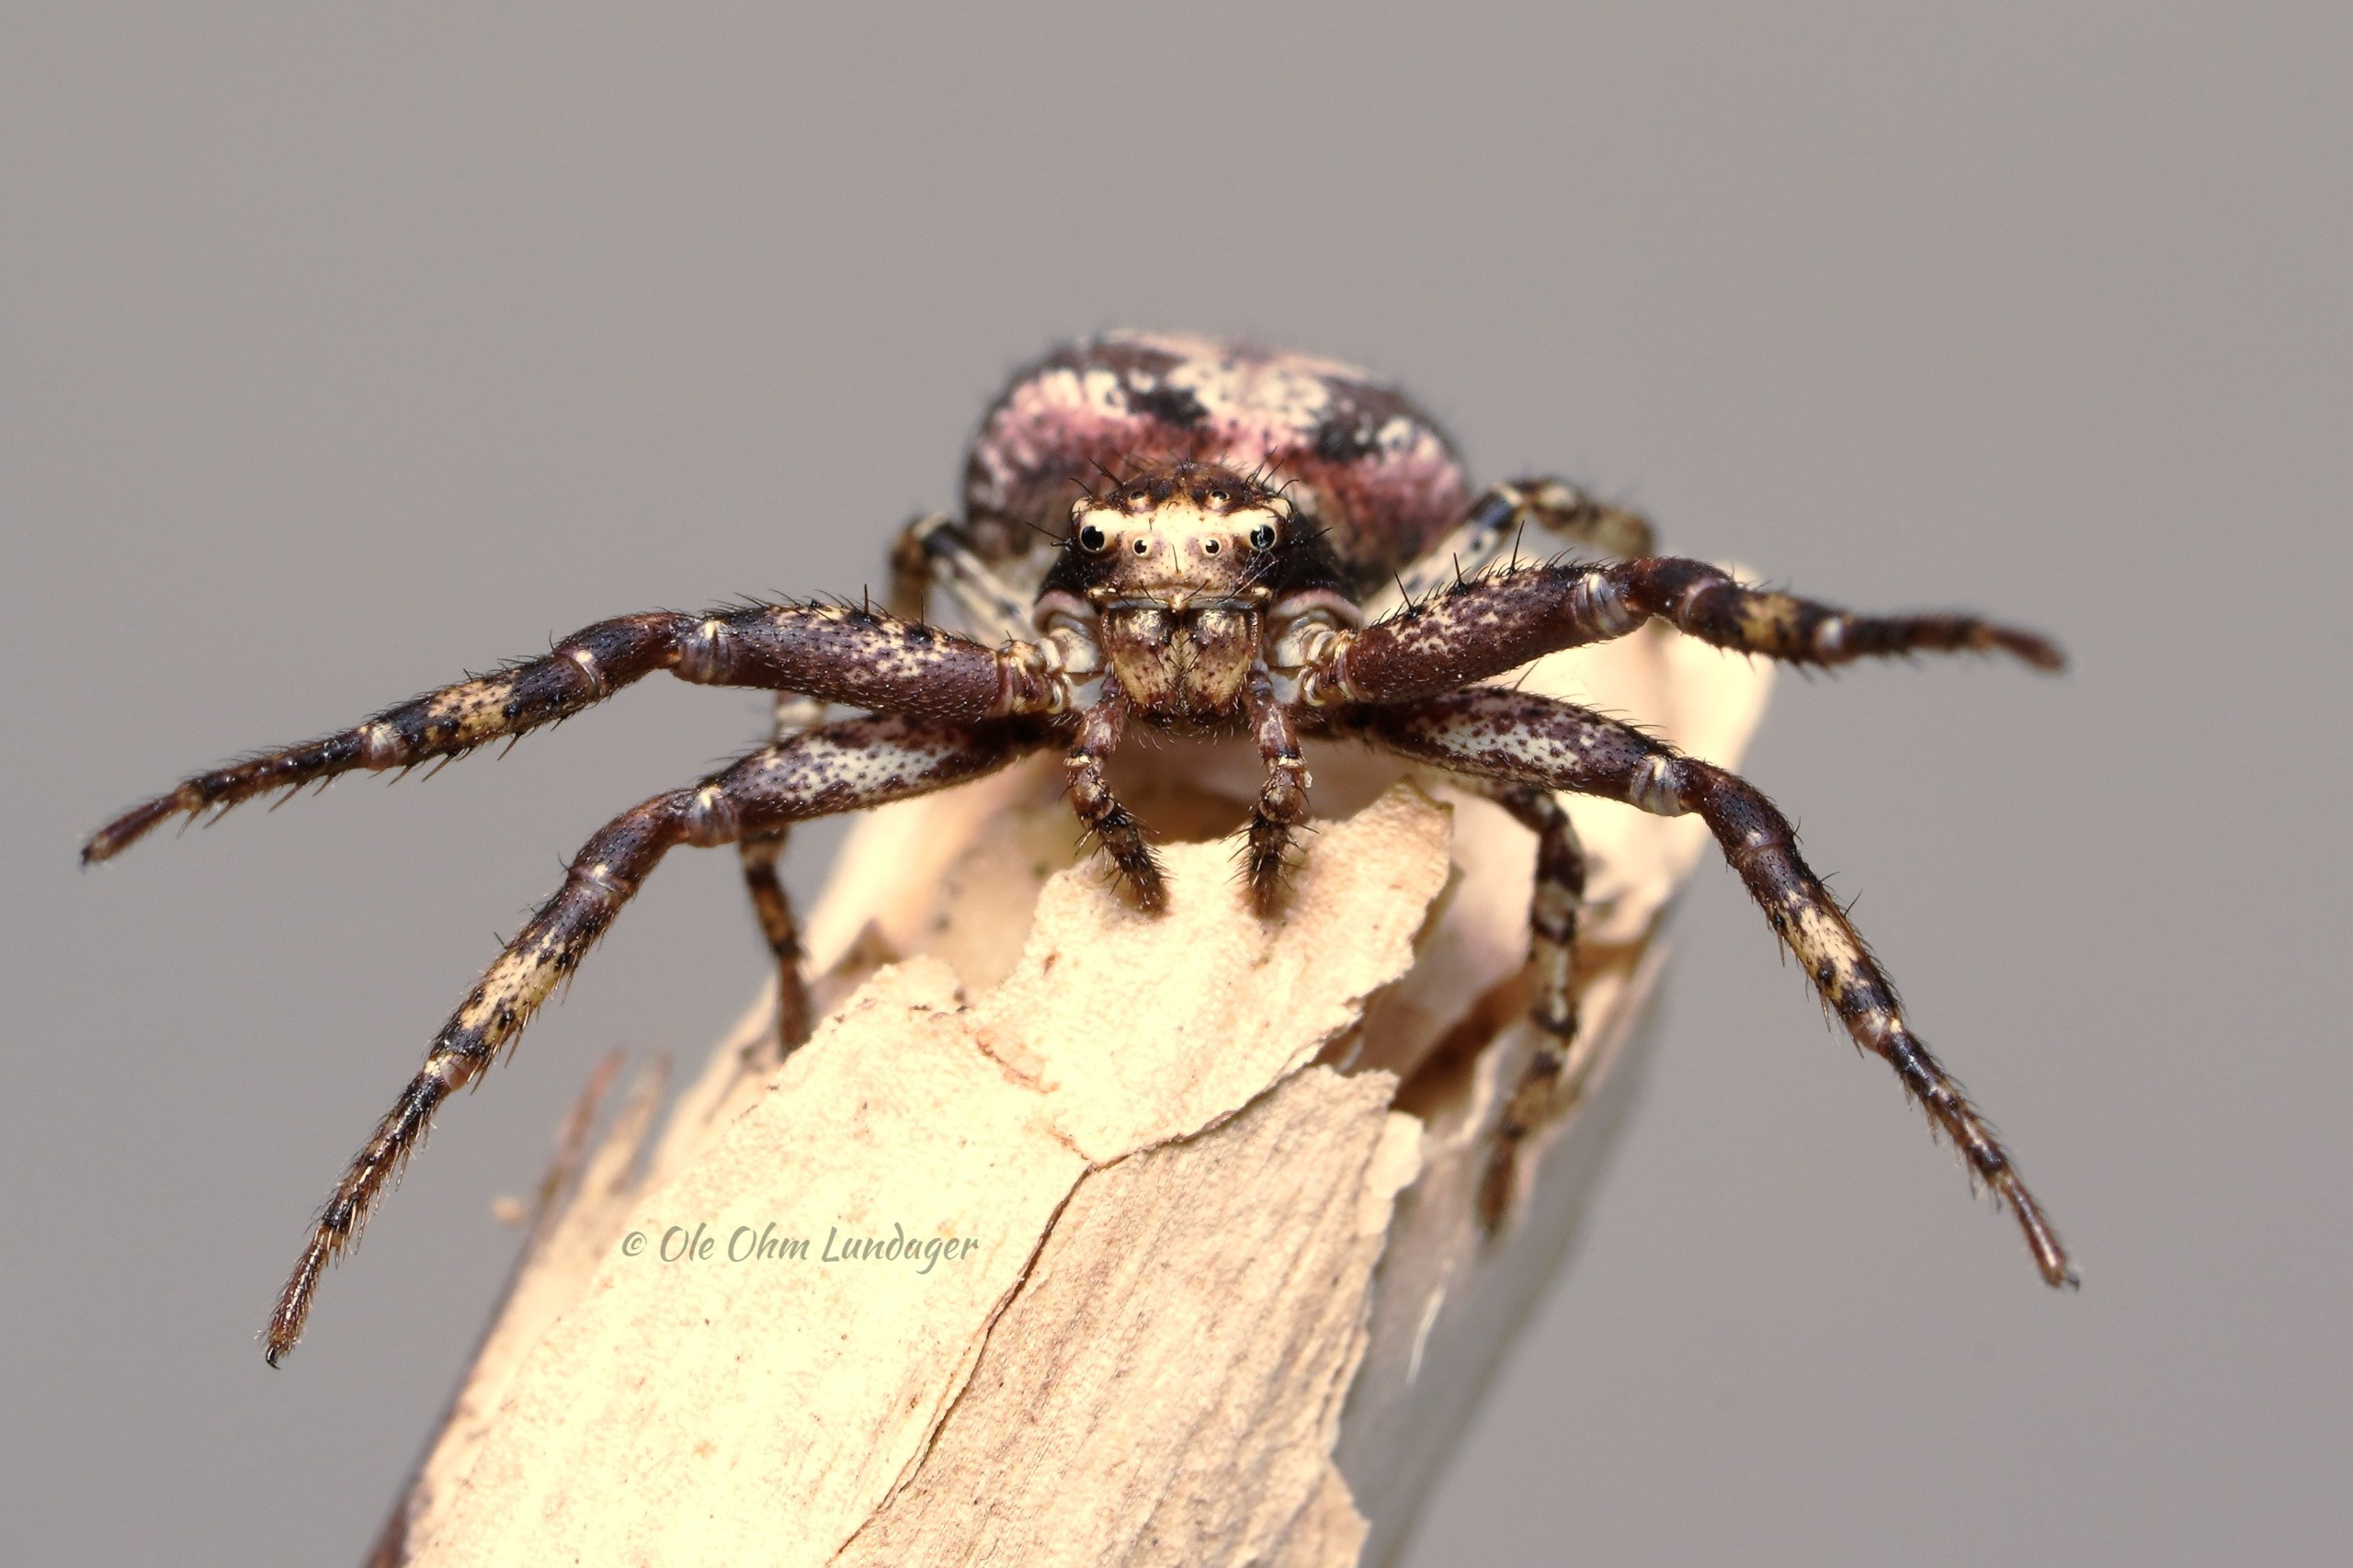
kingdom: Animalia
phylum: Arthropoda
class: Arachnida
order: Araneae
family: Thomisidae
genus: Xysticus
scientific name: Xysticus audax
